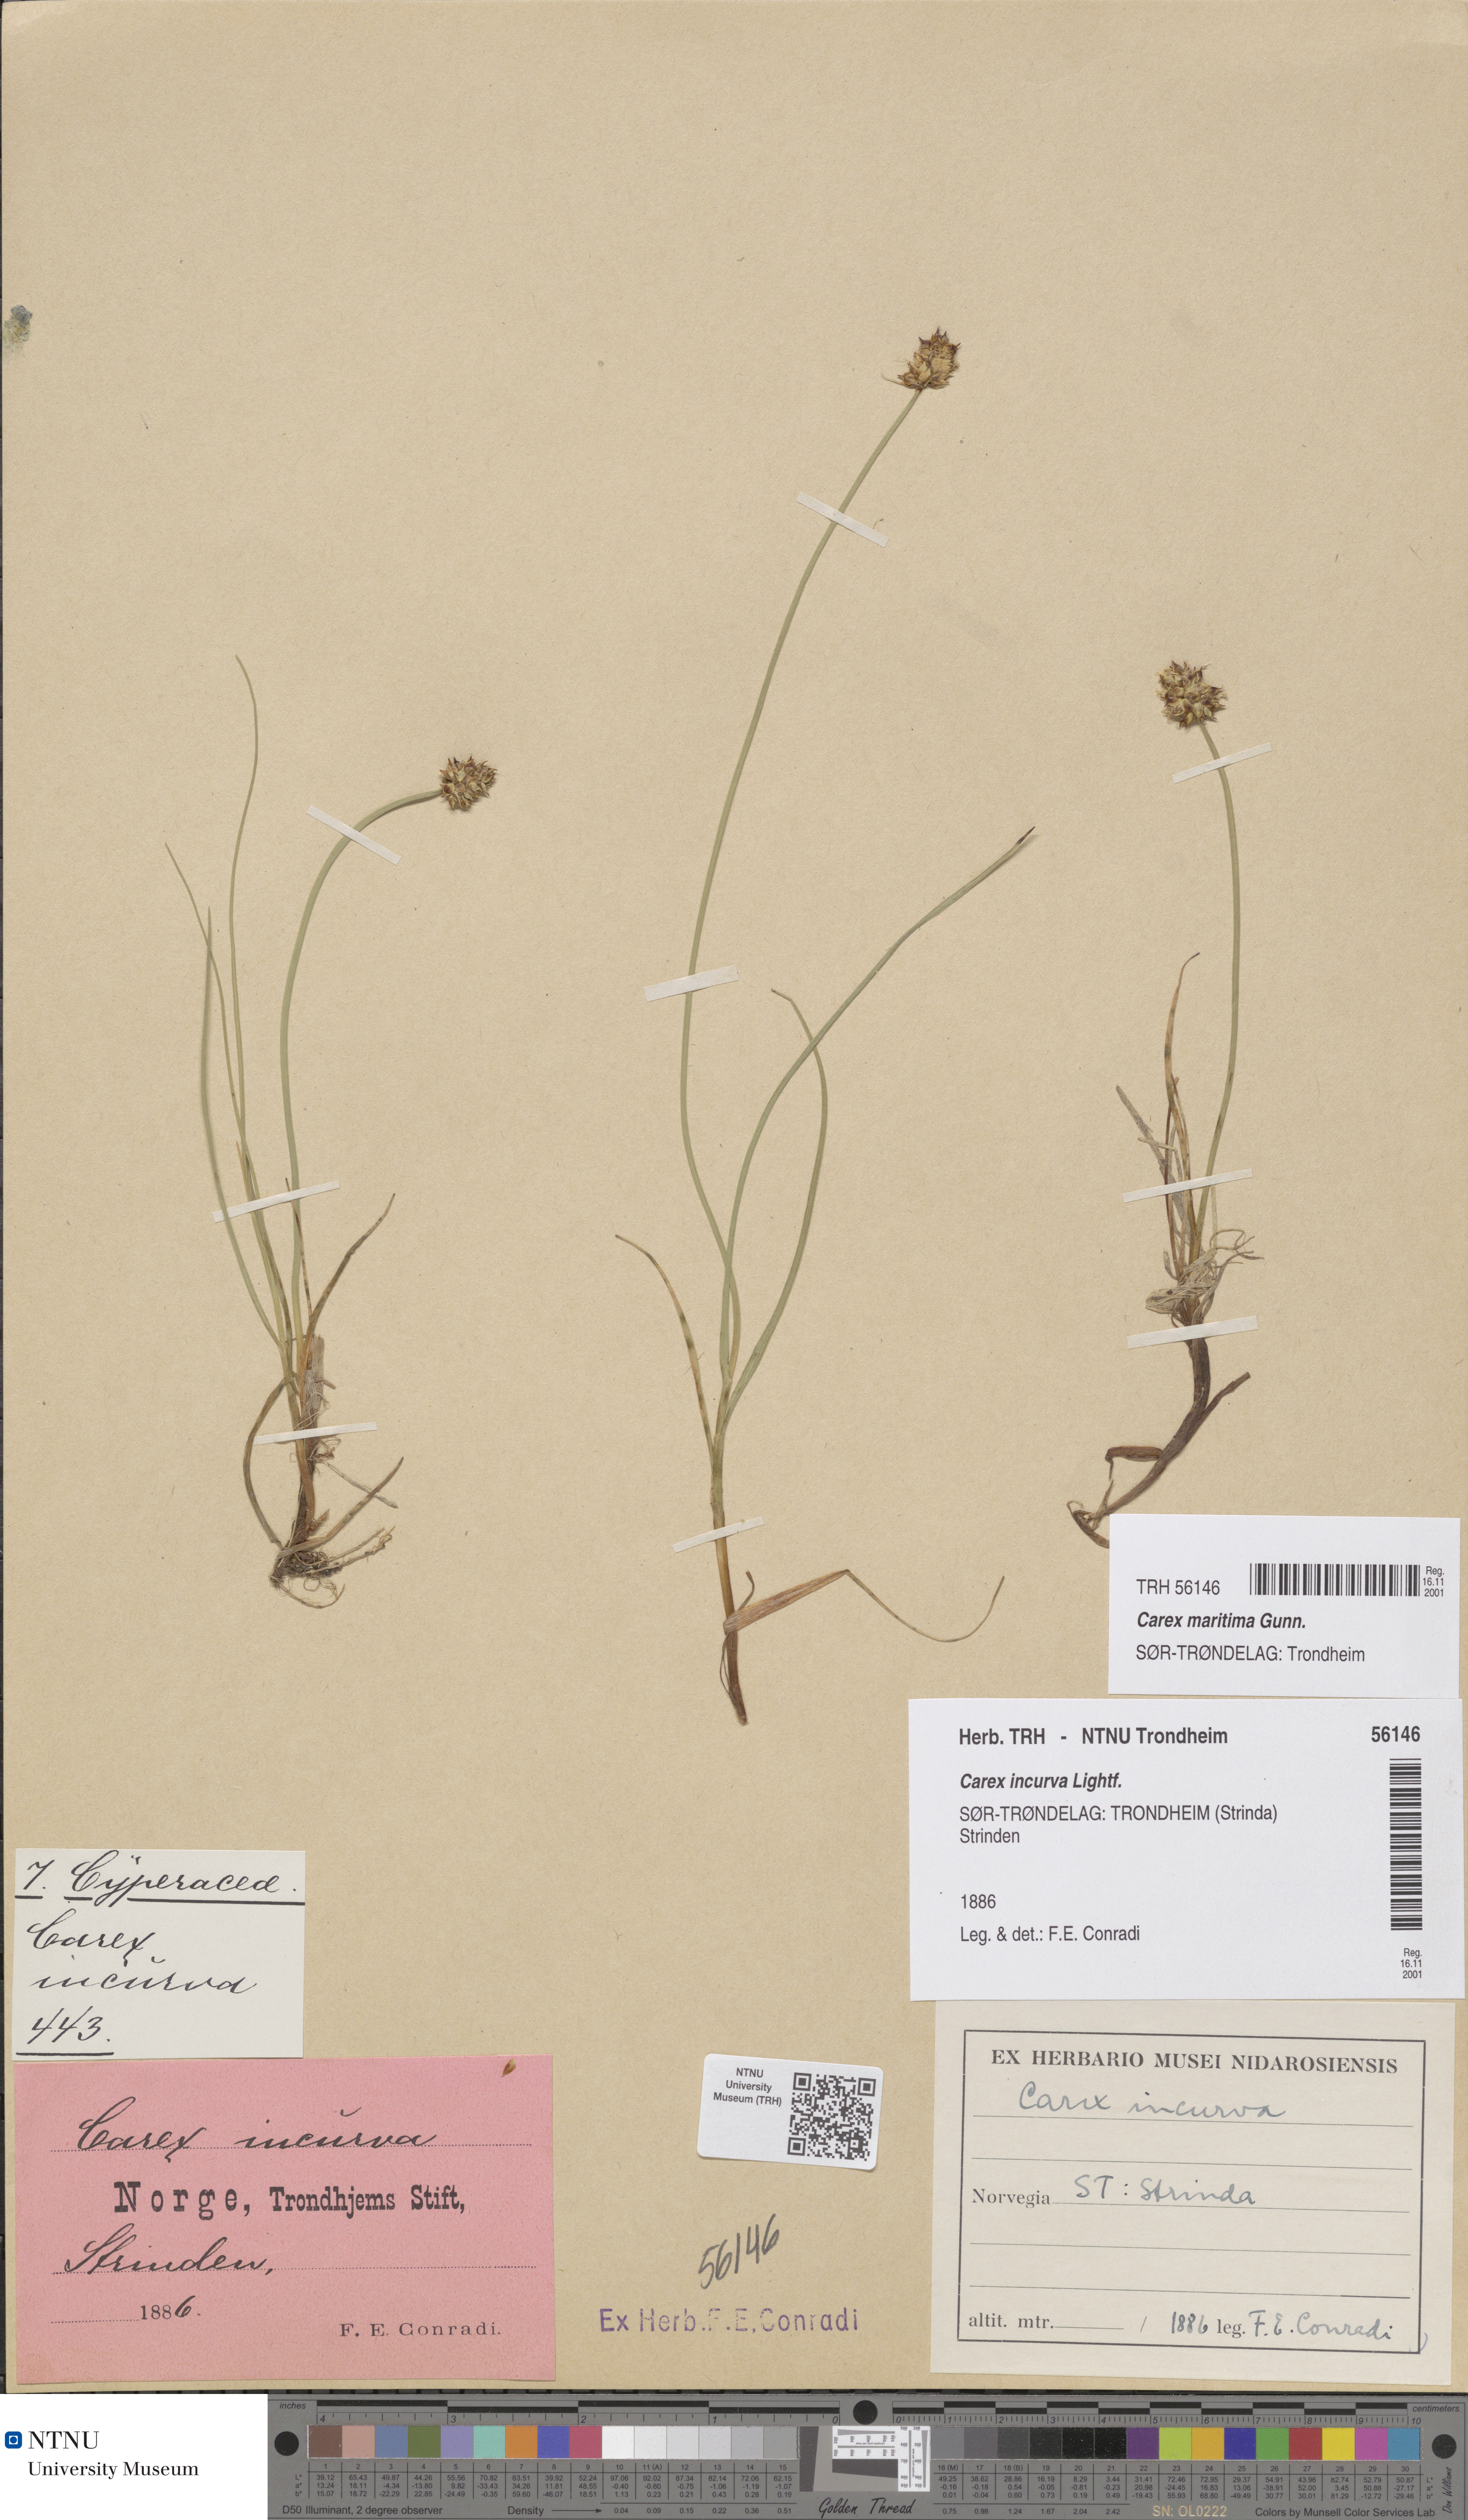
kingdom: Plantae
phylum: Tracheophyta
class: Liliopsida
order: Poales
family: Cyperaceae
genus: Carex
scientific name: Carex maritima
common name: Curved sedge
